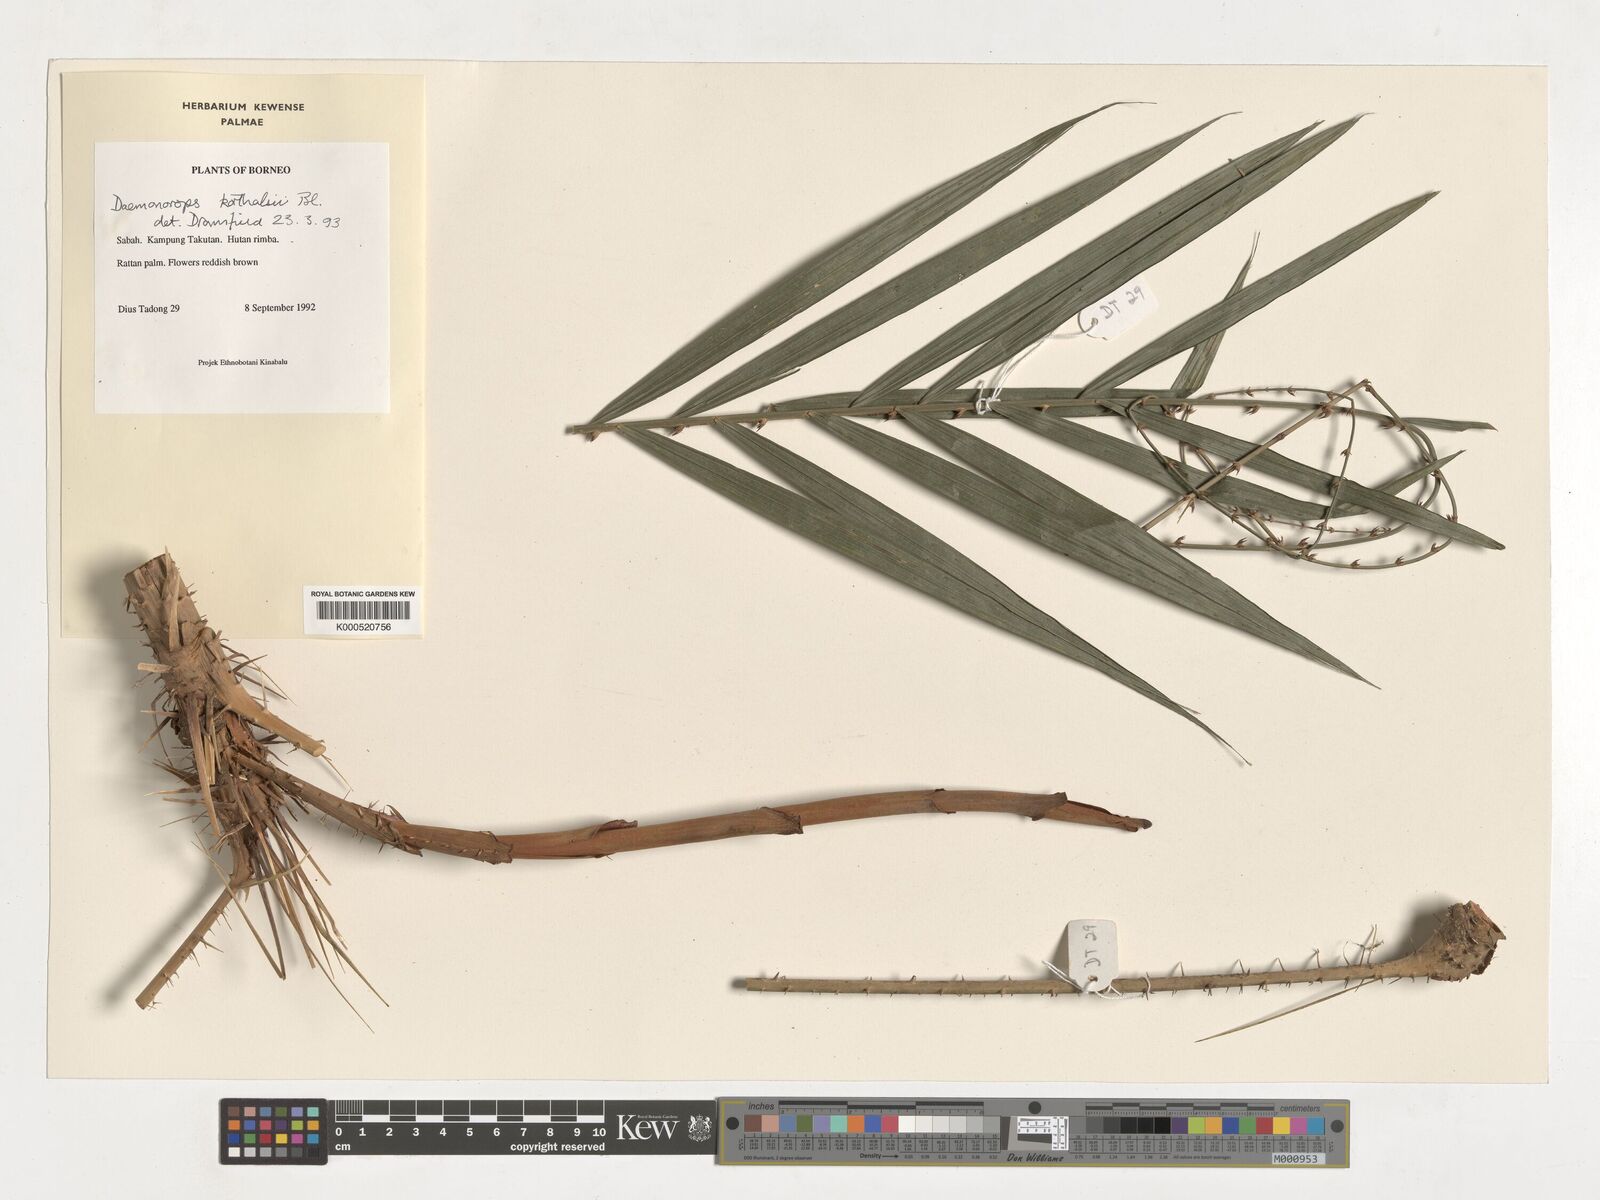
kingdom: Plantae
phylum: Tracheophyta
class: Liliopsida
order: Arecales
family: Arecaceae
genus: Calamus
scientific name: Calamus hirsutus
